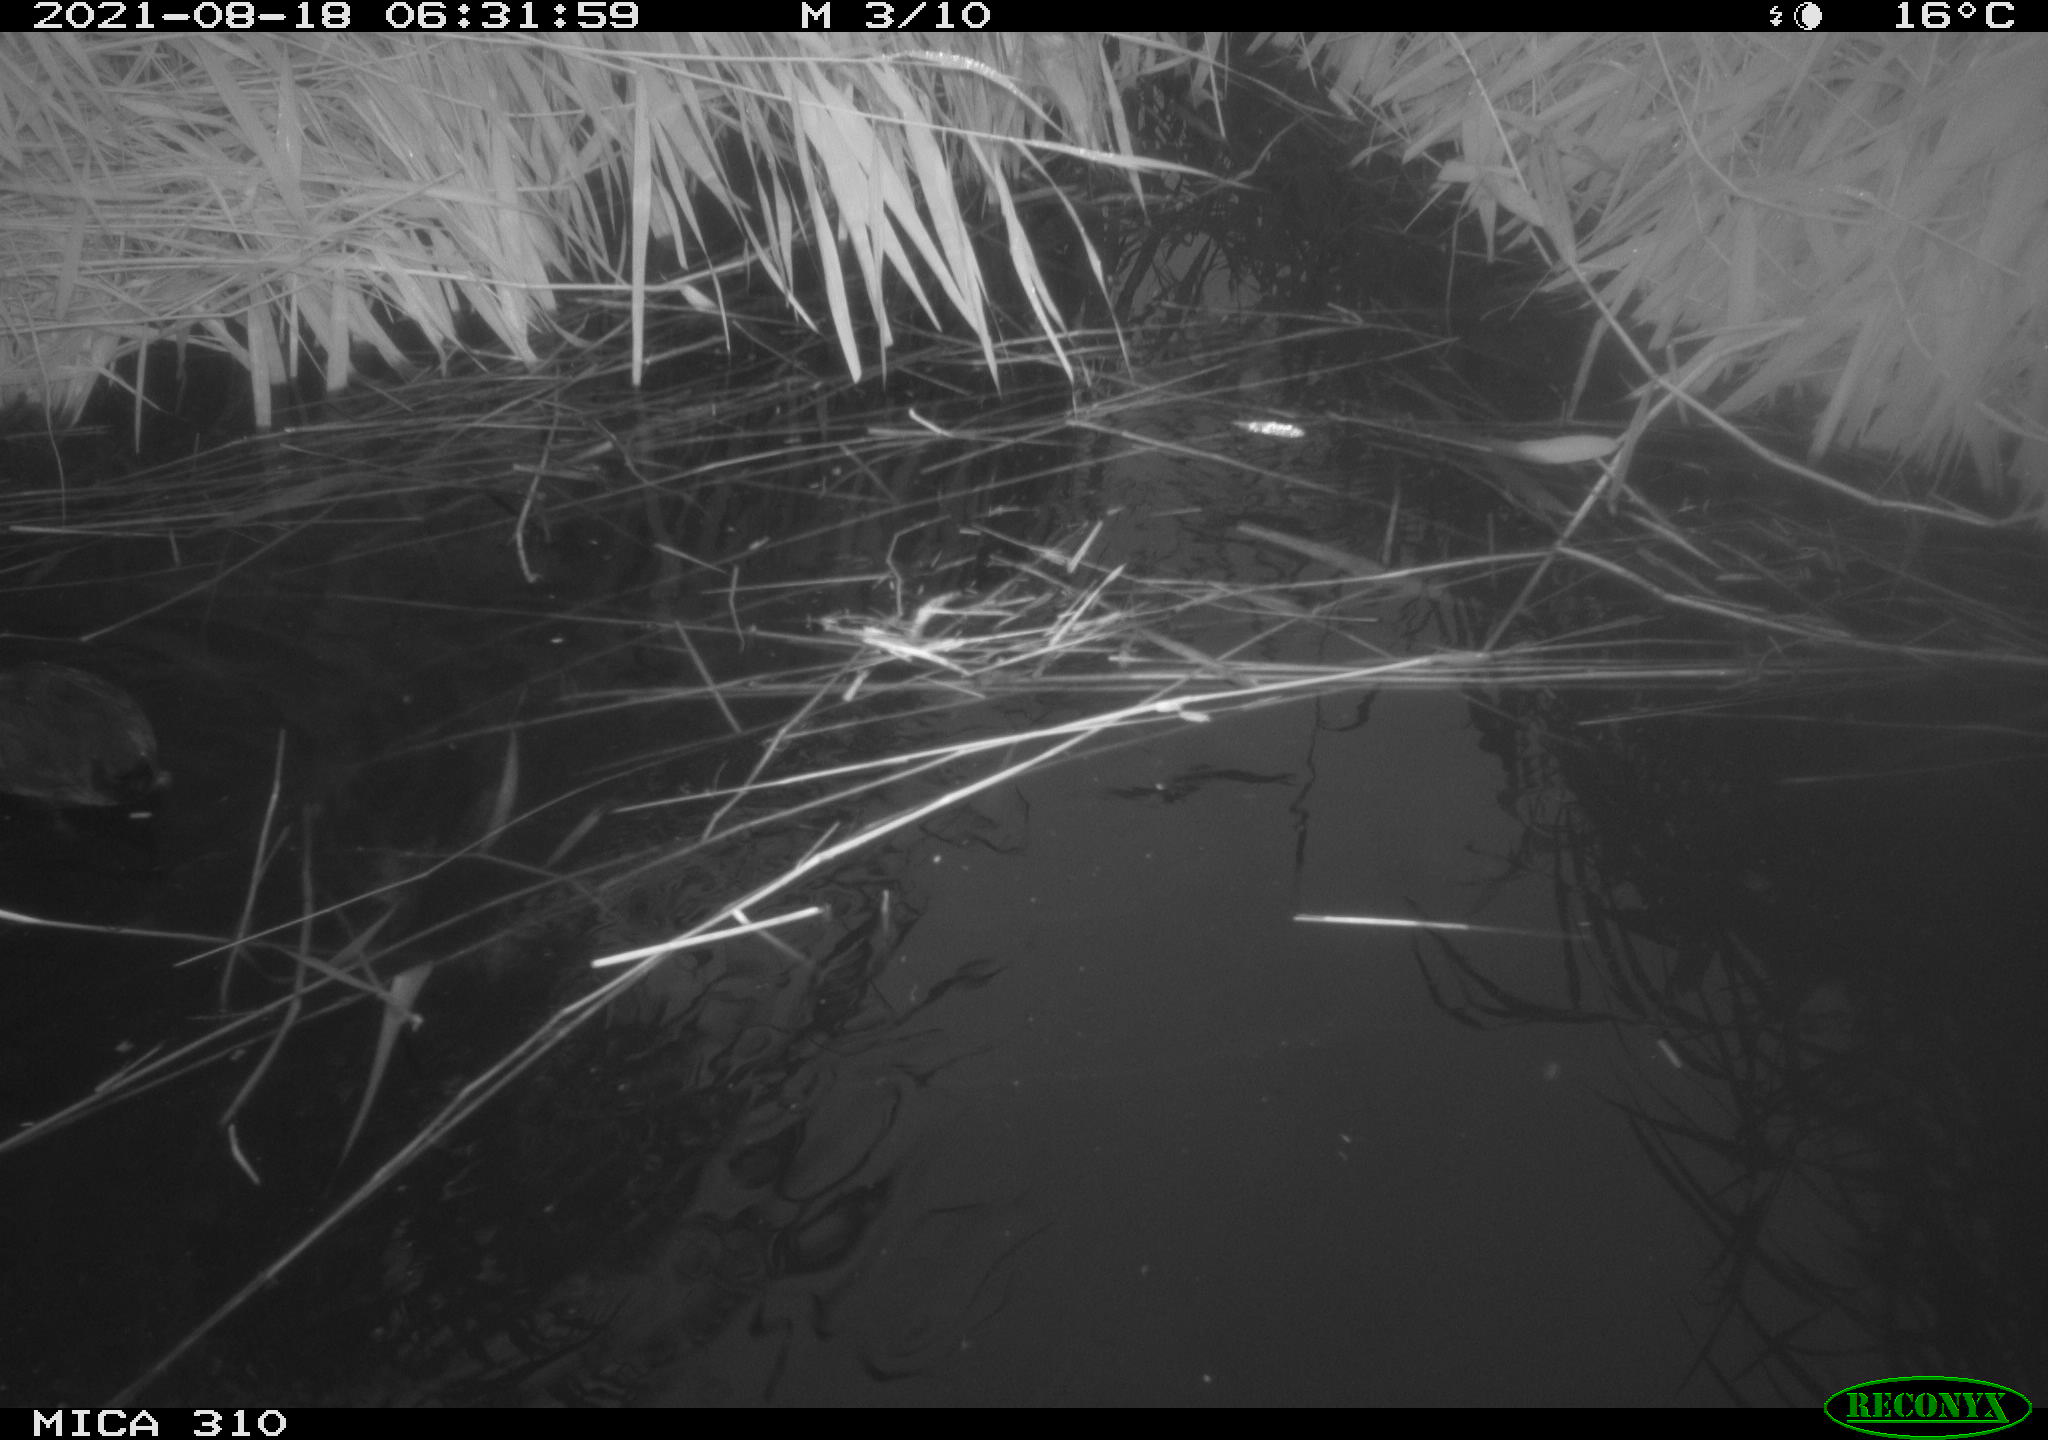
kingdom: Animalia
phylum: Chordata
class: Aves
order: Gruiformes
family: Rallidae
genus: Fulica
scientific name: Fulica atra
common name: Eurasian coot
